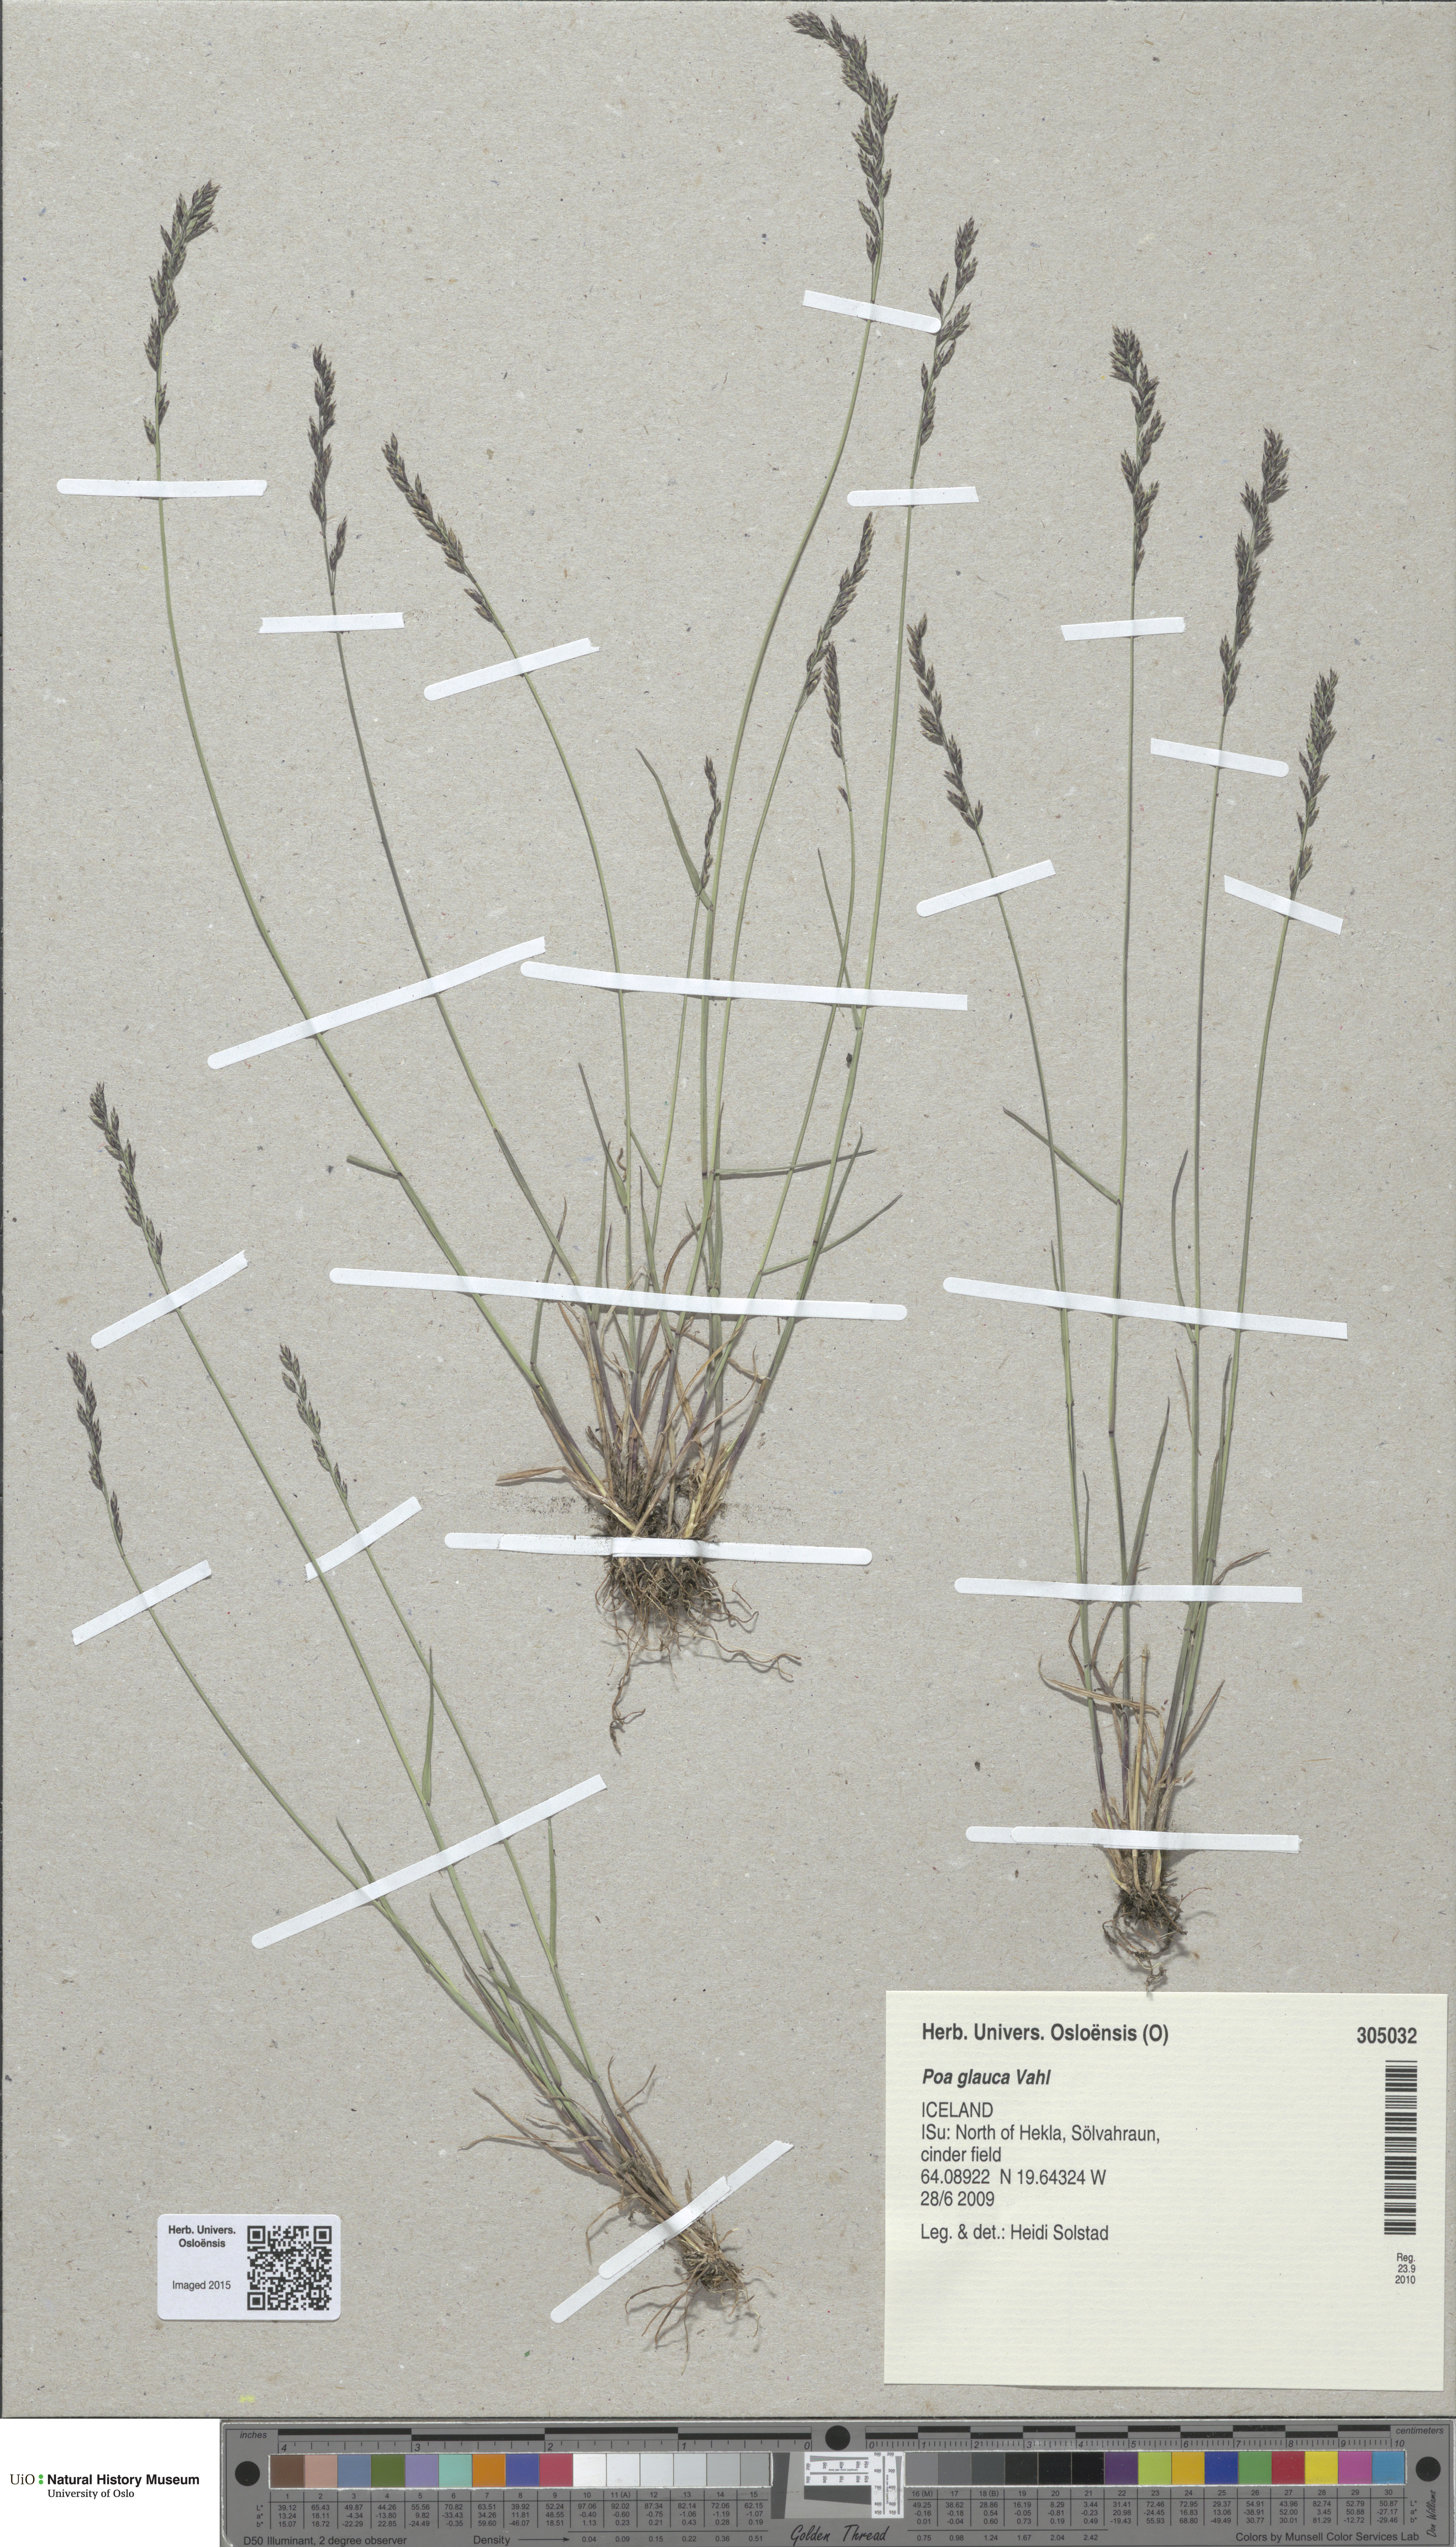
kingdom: Plantae
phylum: Tracheophyta
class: Liliopsida
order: Poales
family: Poaceae
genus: Poa
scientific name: Poa glauca
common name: Glaucous bluegrass
